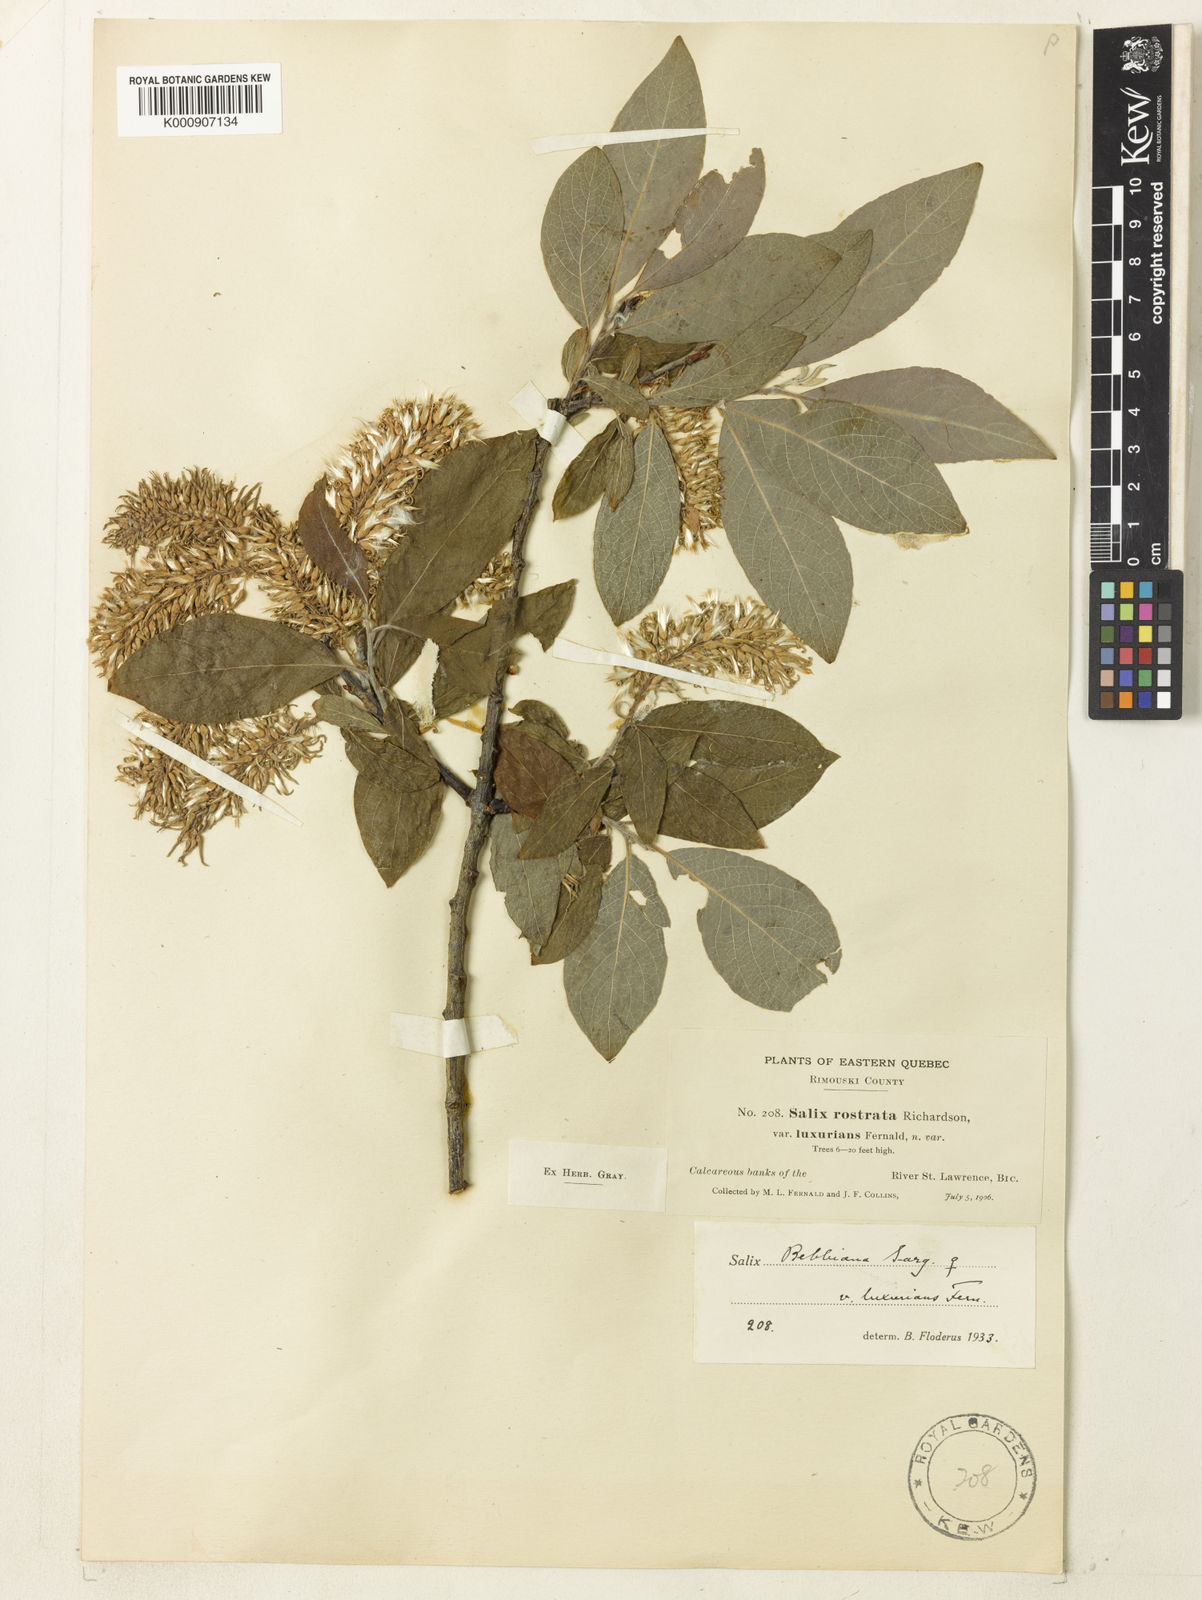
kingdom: Plantae
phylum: Tracheophyta
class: Magnoliopsida
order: Malpighiales
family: Salicaceae
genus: Salix
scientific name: Salix
